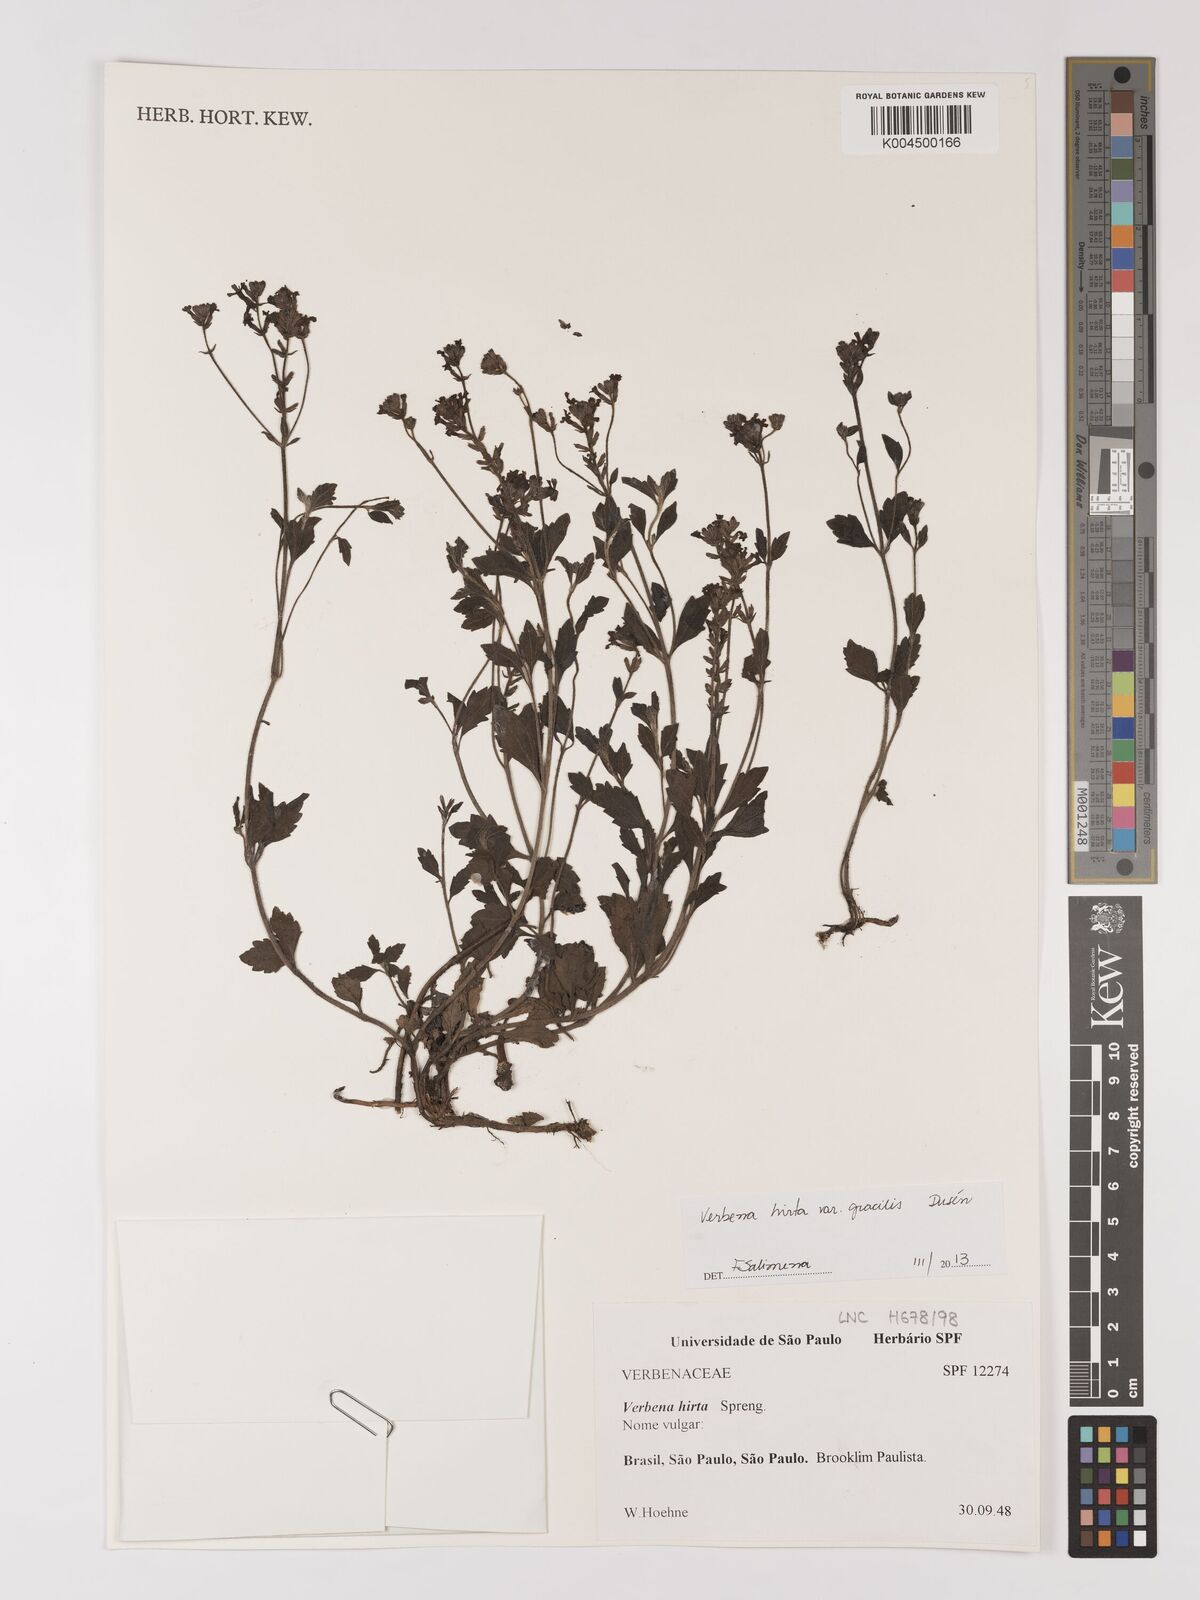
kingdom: Plantae
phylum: Tracheophyta
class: Magnoliopsida
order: Lamiales
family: Verbenaceae
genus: Verbena
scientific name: Verbena hirta
